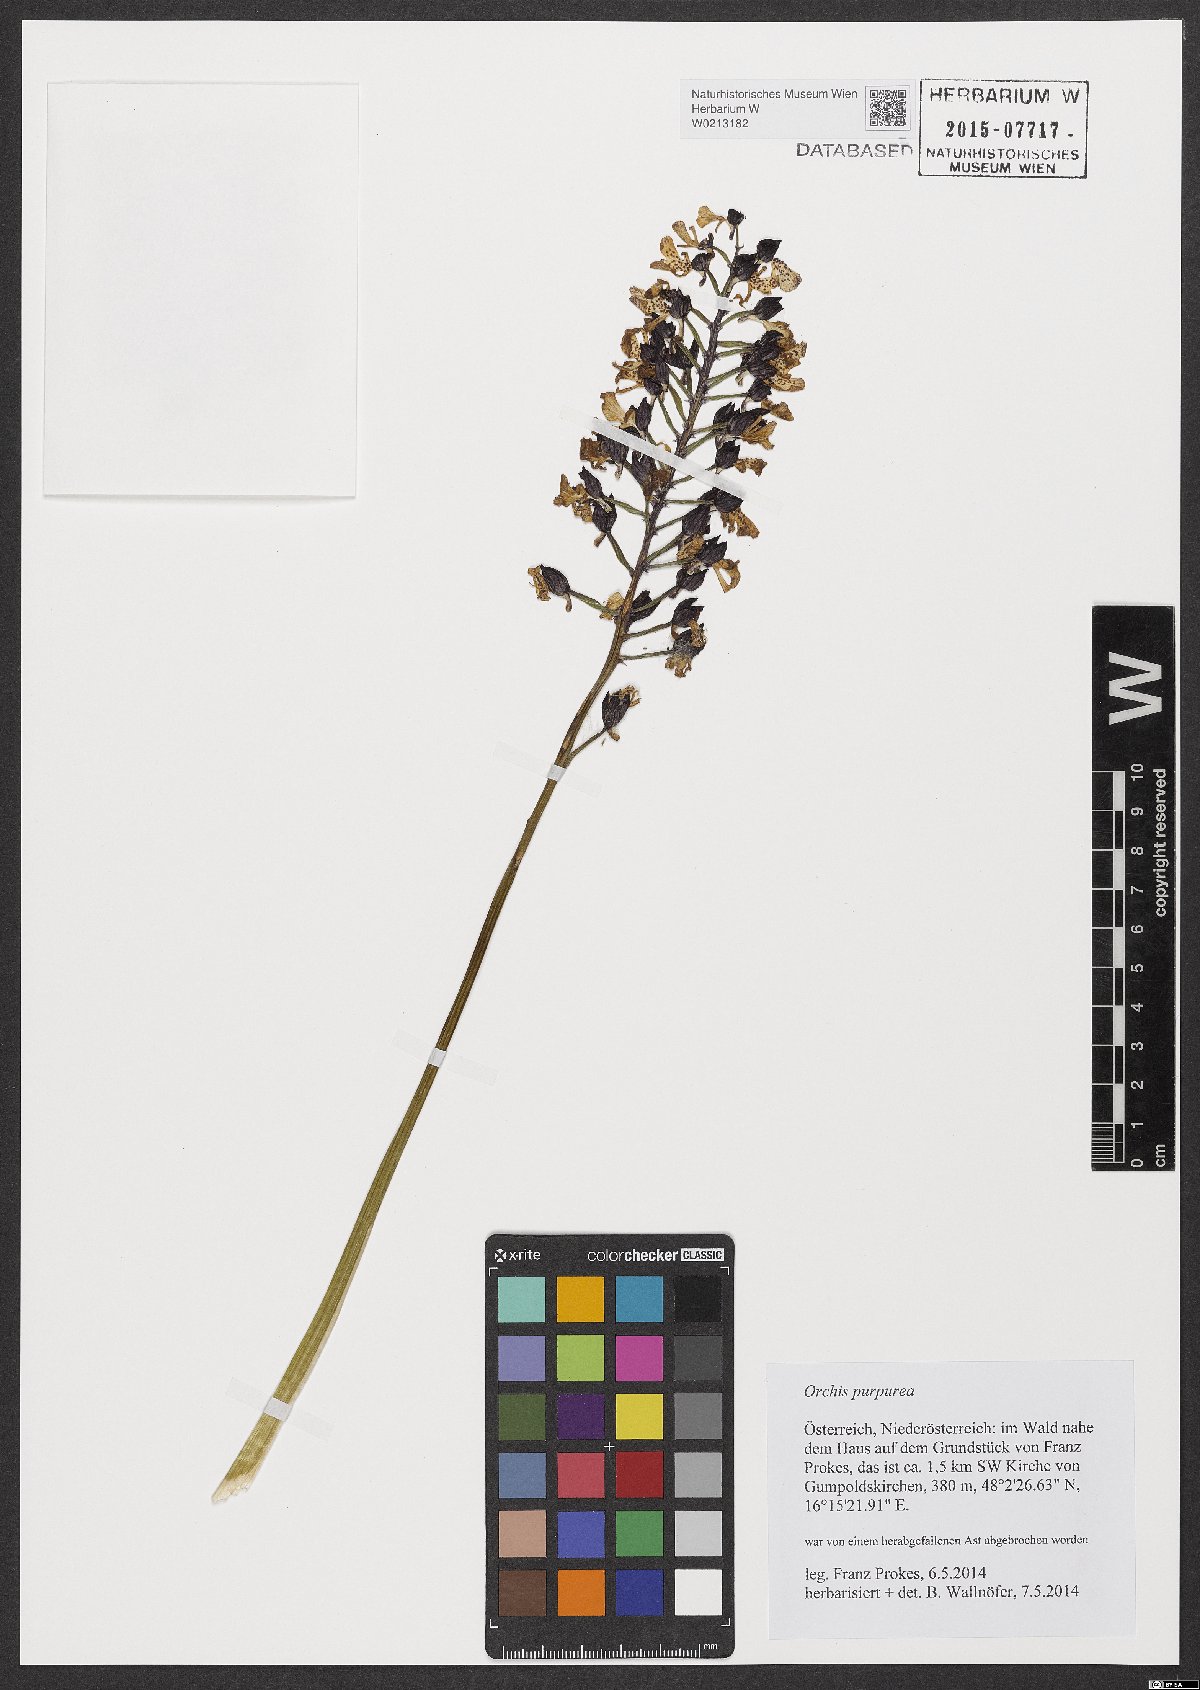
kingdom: Plantae
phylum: Tracheophyta
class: Liliopsida
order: Asparagales
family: Orchidaceae
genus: Orchis
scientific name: Orchis purpurea
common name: Lady orchid
